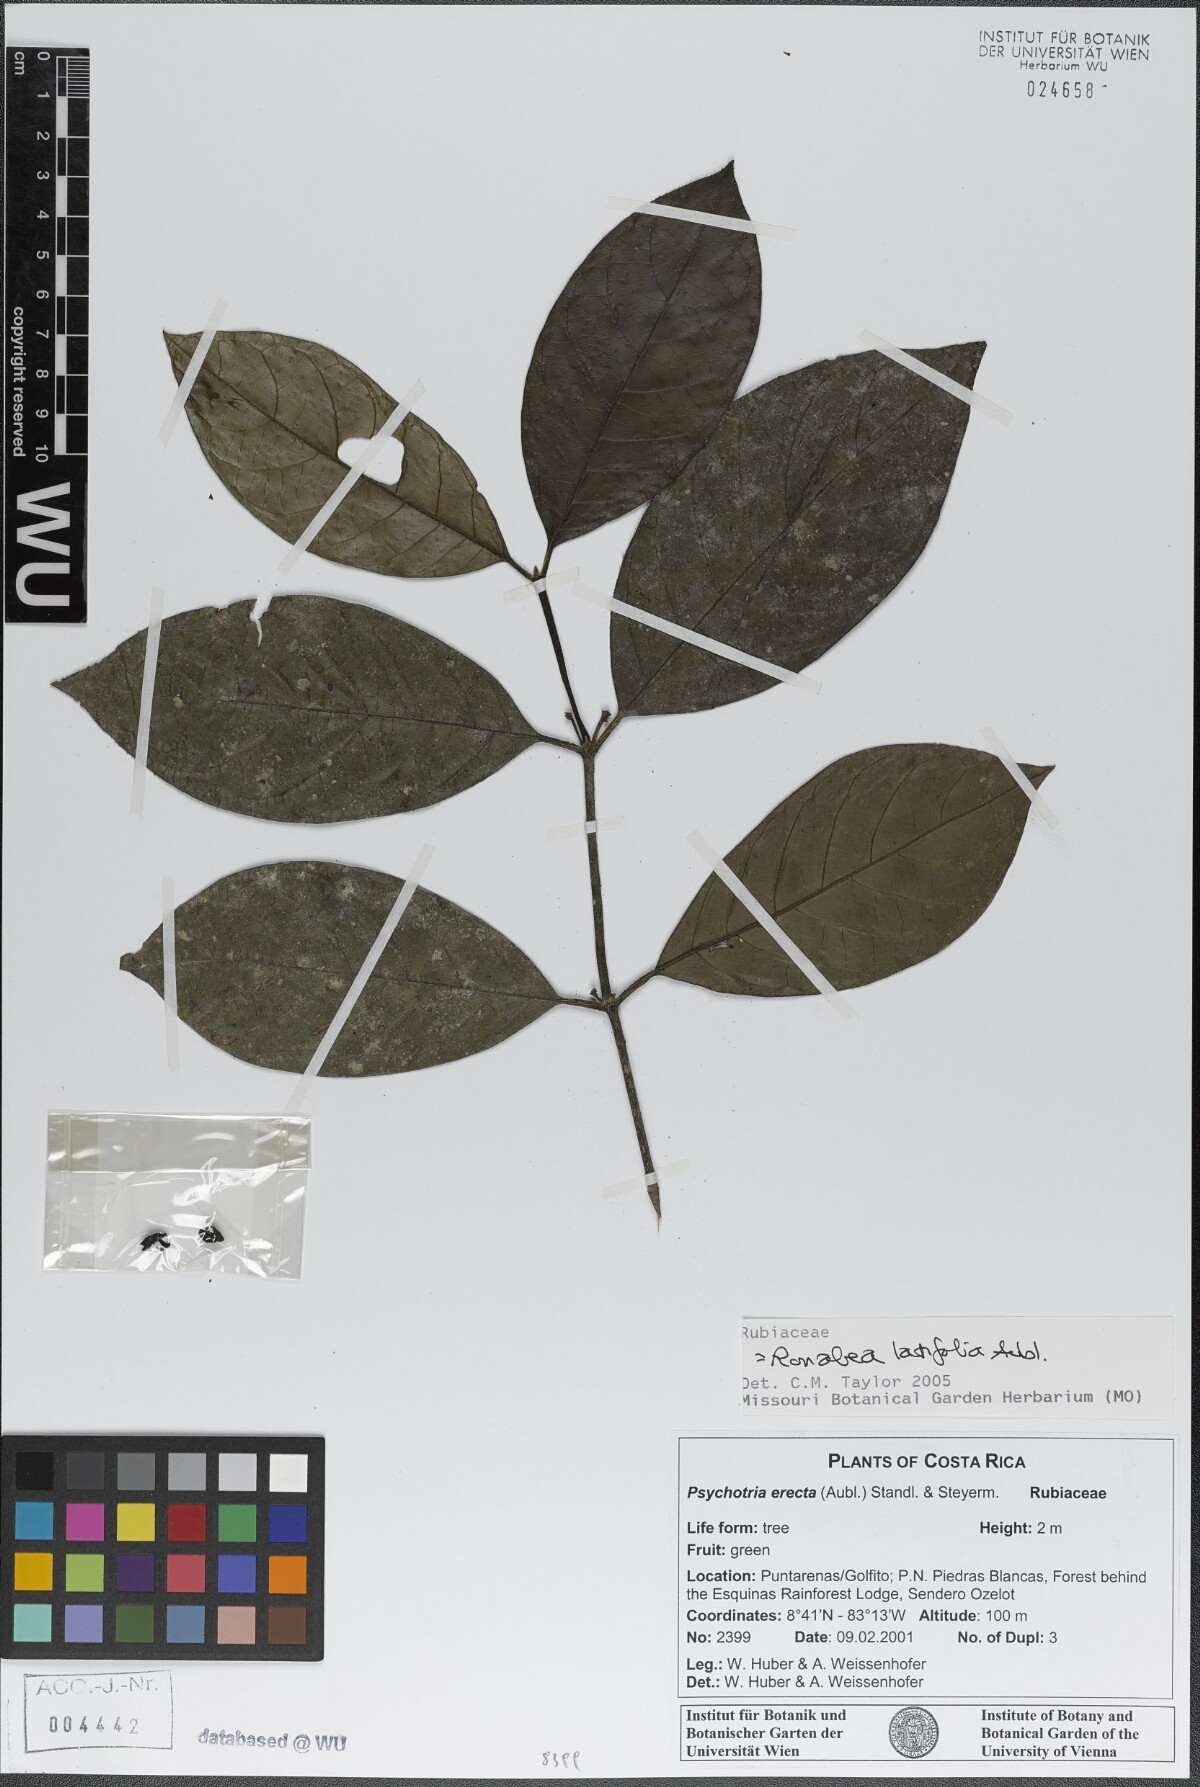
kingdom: Plantae
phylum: Tracheophyta
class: Magnoliopsida
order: Gentianales
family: Rubiaceae
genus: Ronabea
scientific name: Ronabea latifolia
